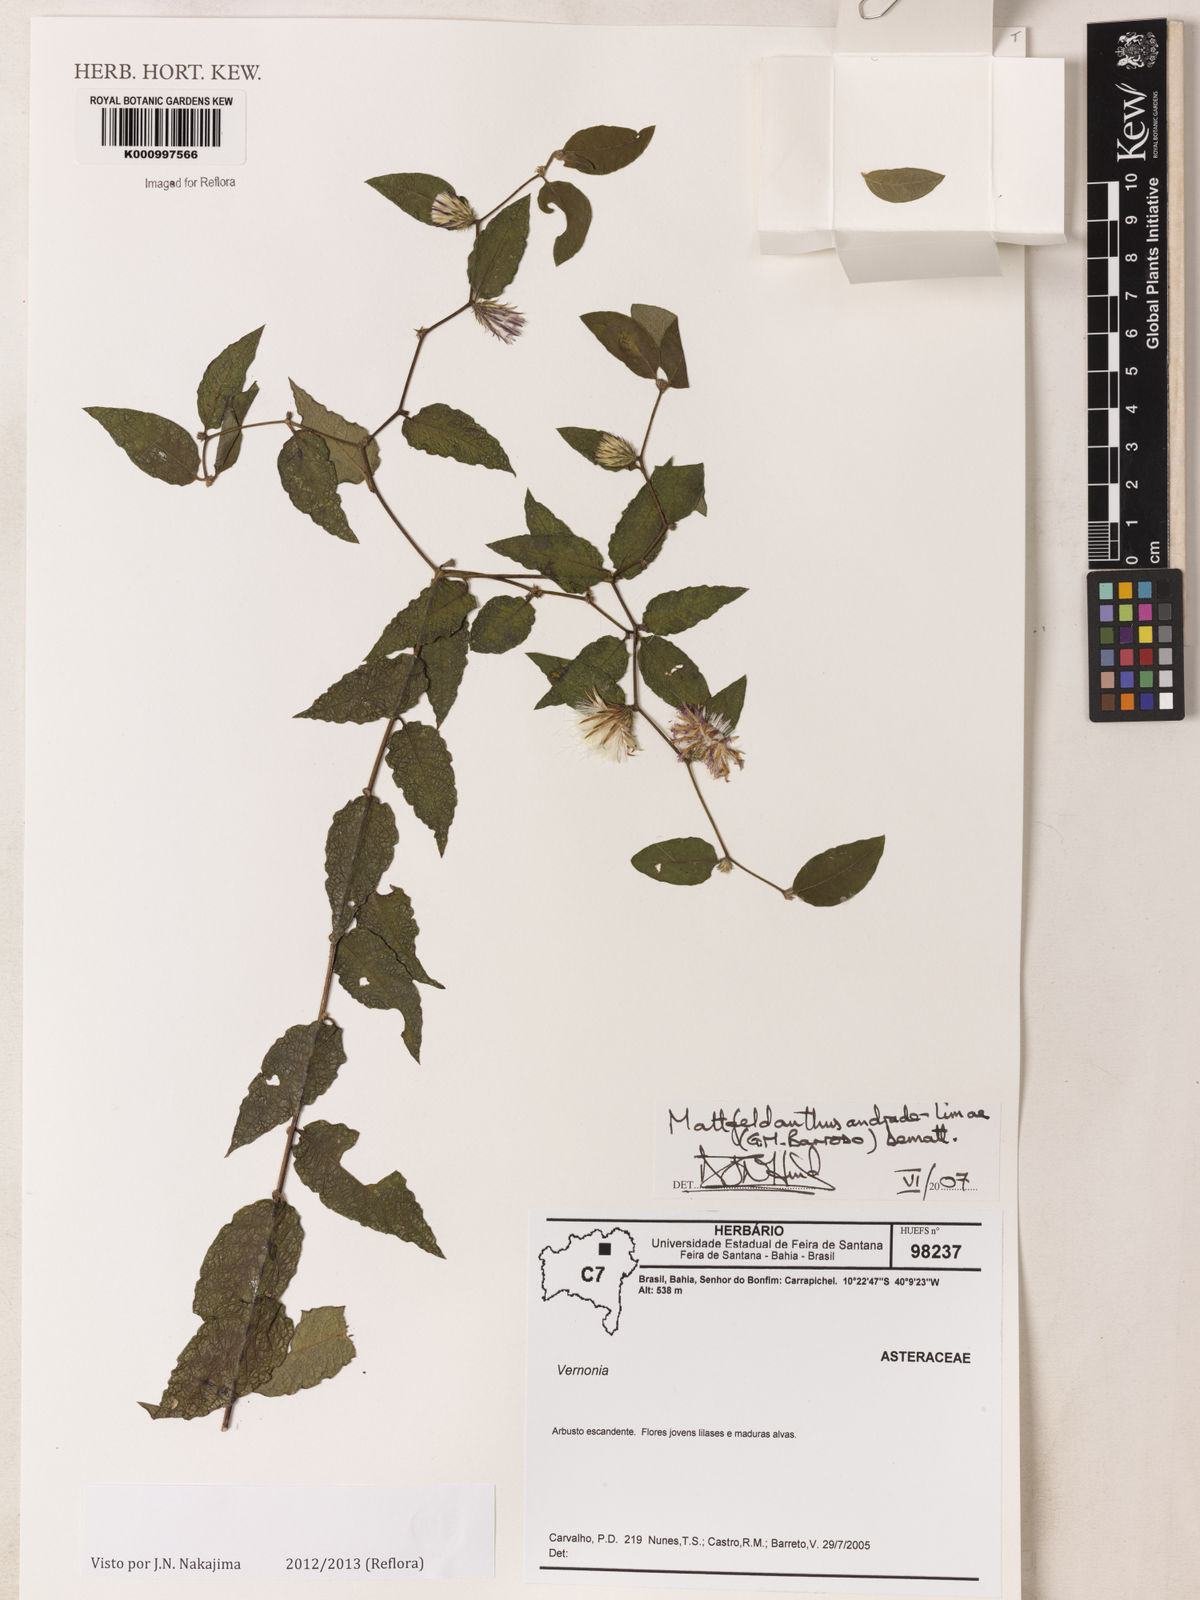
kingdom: Plantae
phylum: Tracheophyta
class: Magnoliopsida
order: Asterales
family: Asteraceae
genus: Mattfeldanthus
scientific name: Mattfeldanthus andrade-limae
